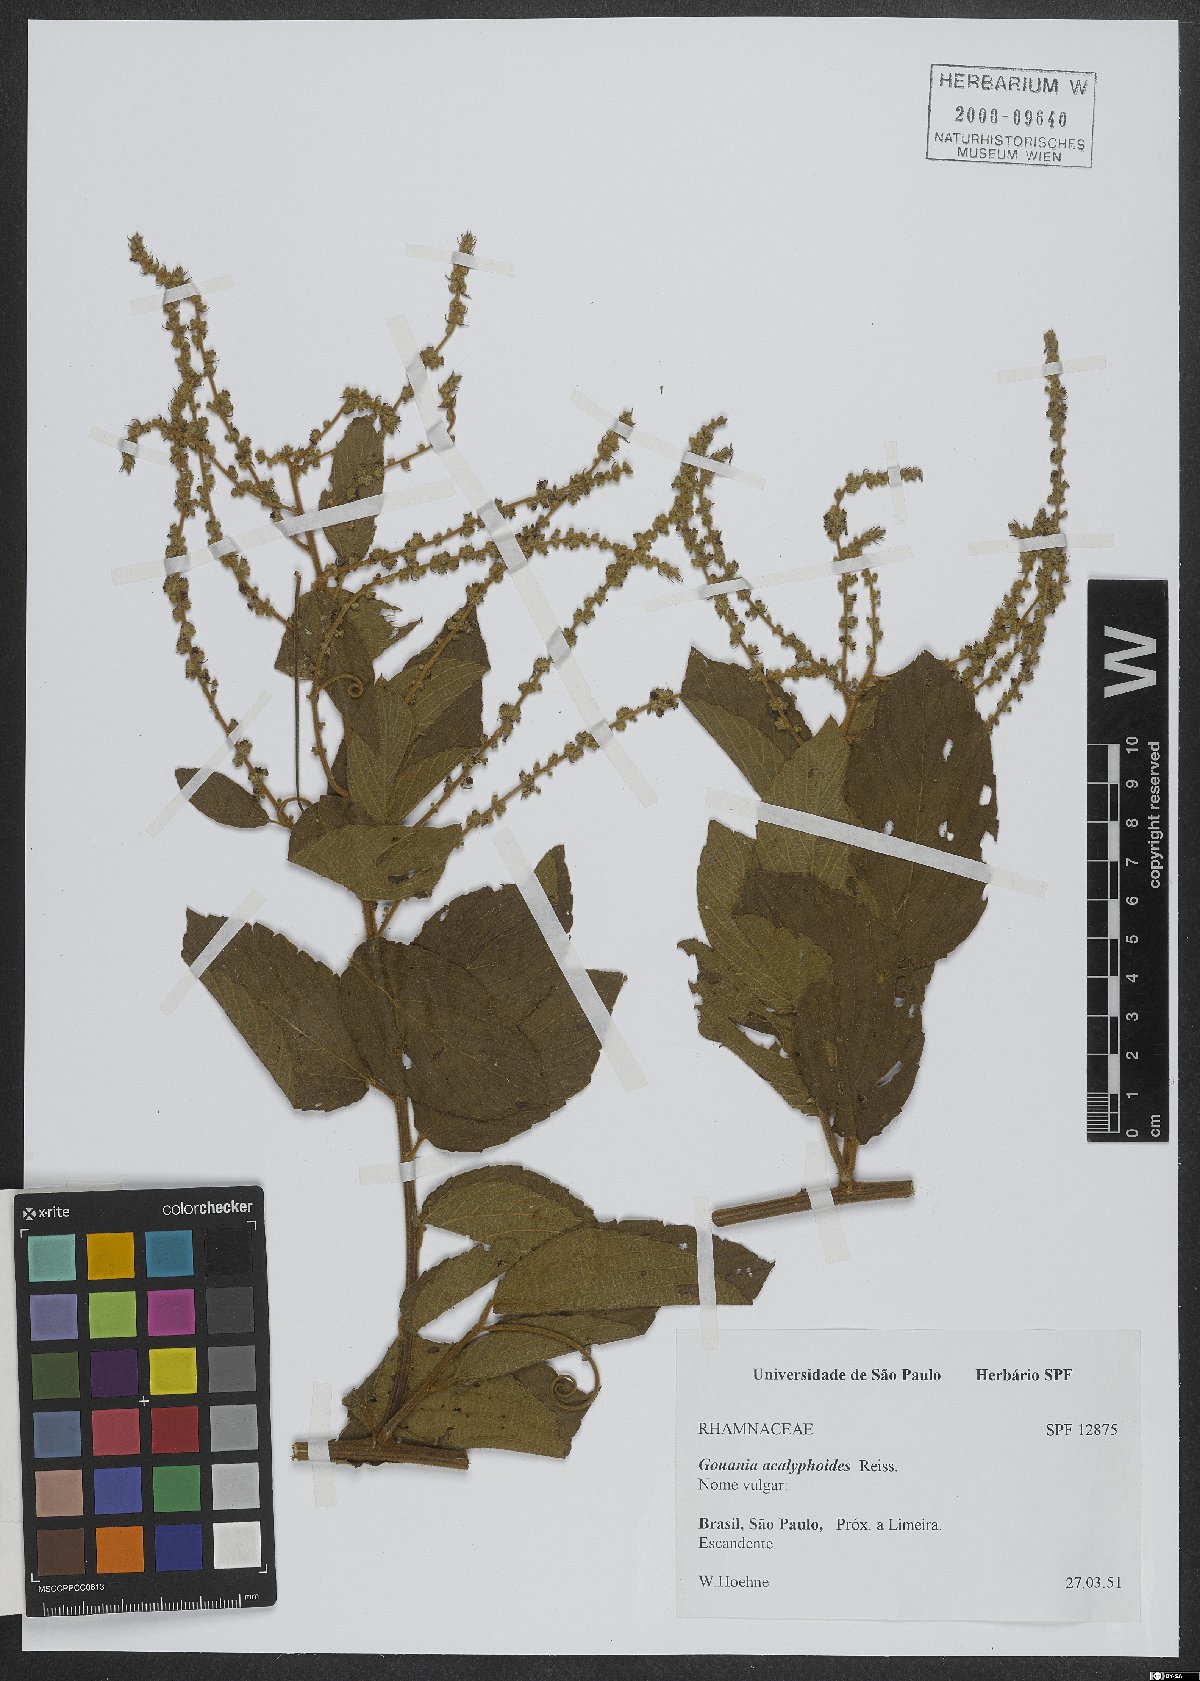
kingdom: Plantae
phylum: Tracheophyta
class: Magnoliopsida
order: Rosales
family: Rhamnaceae
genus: Gouania
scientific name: Gouania acalyphoides
